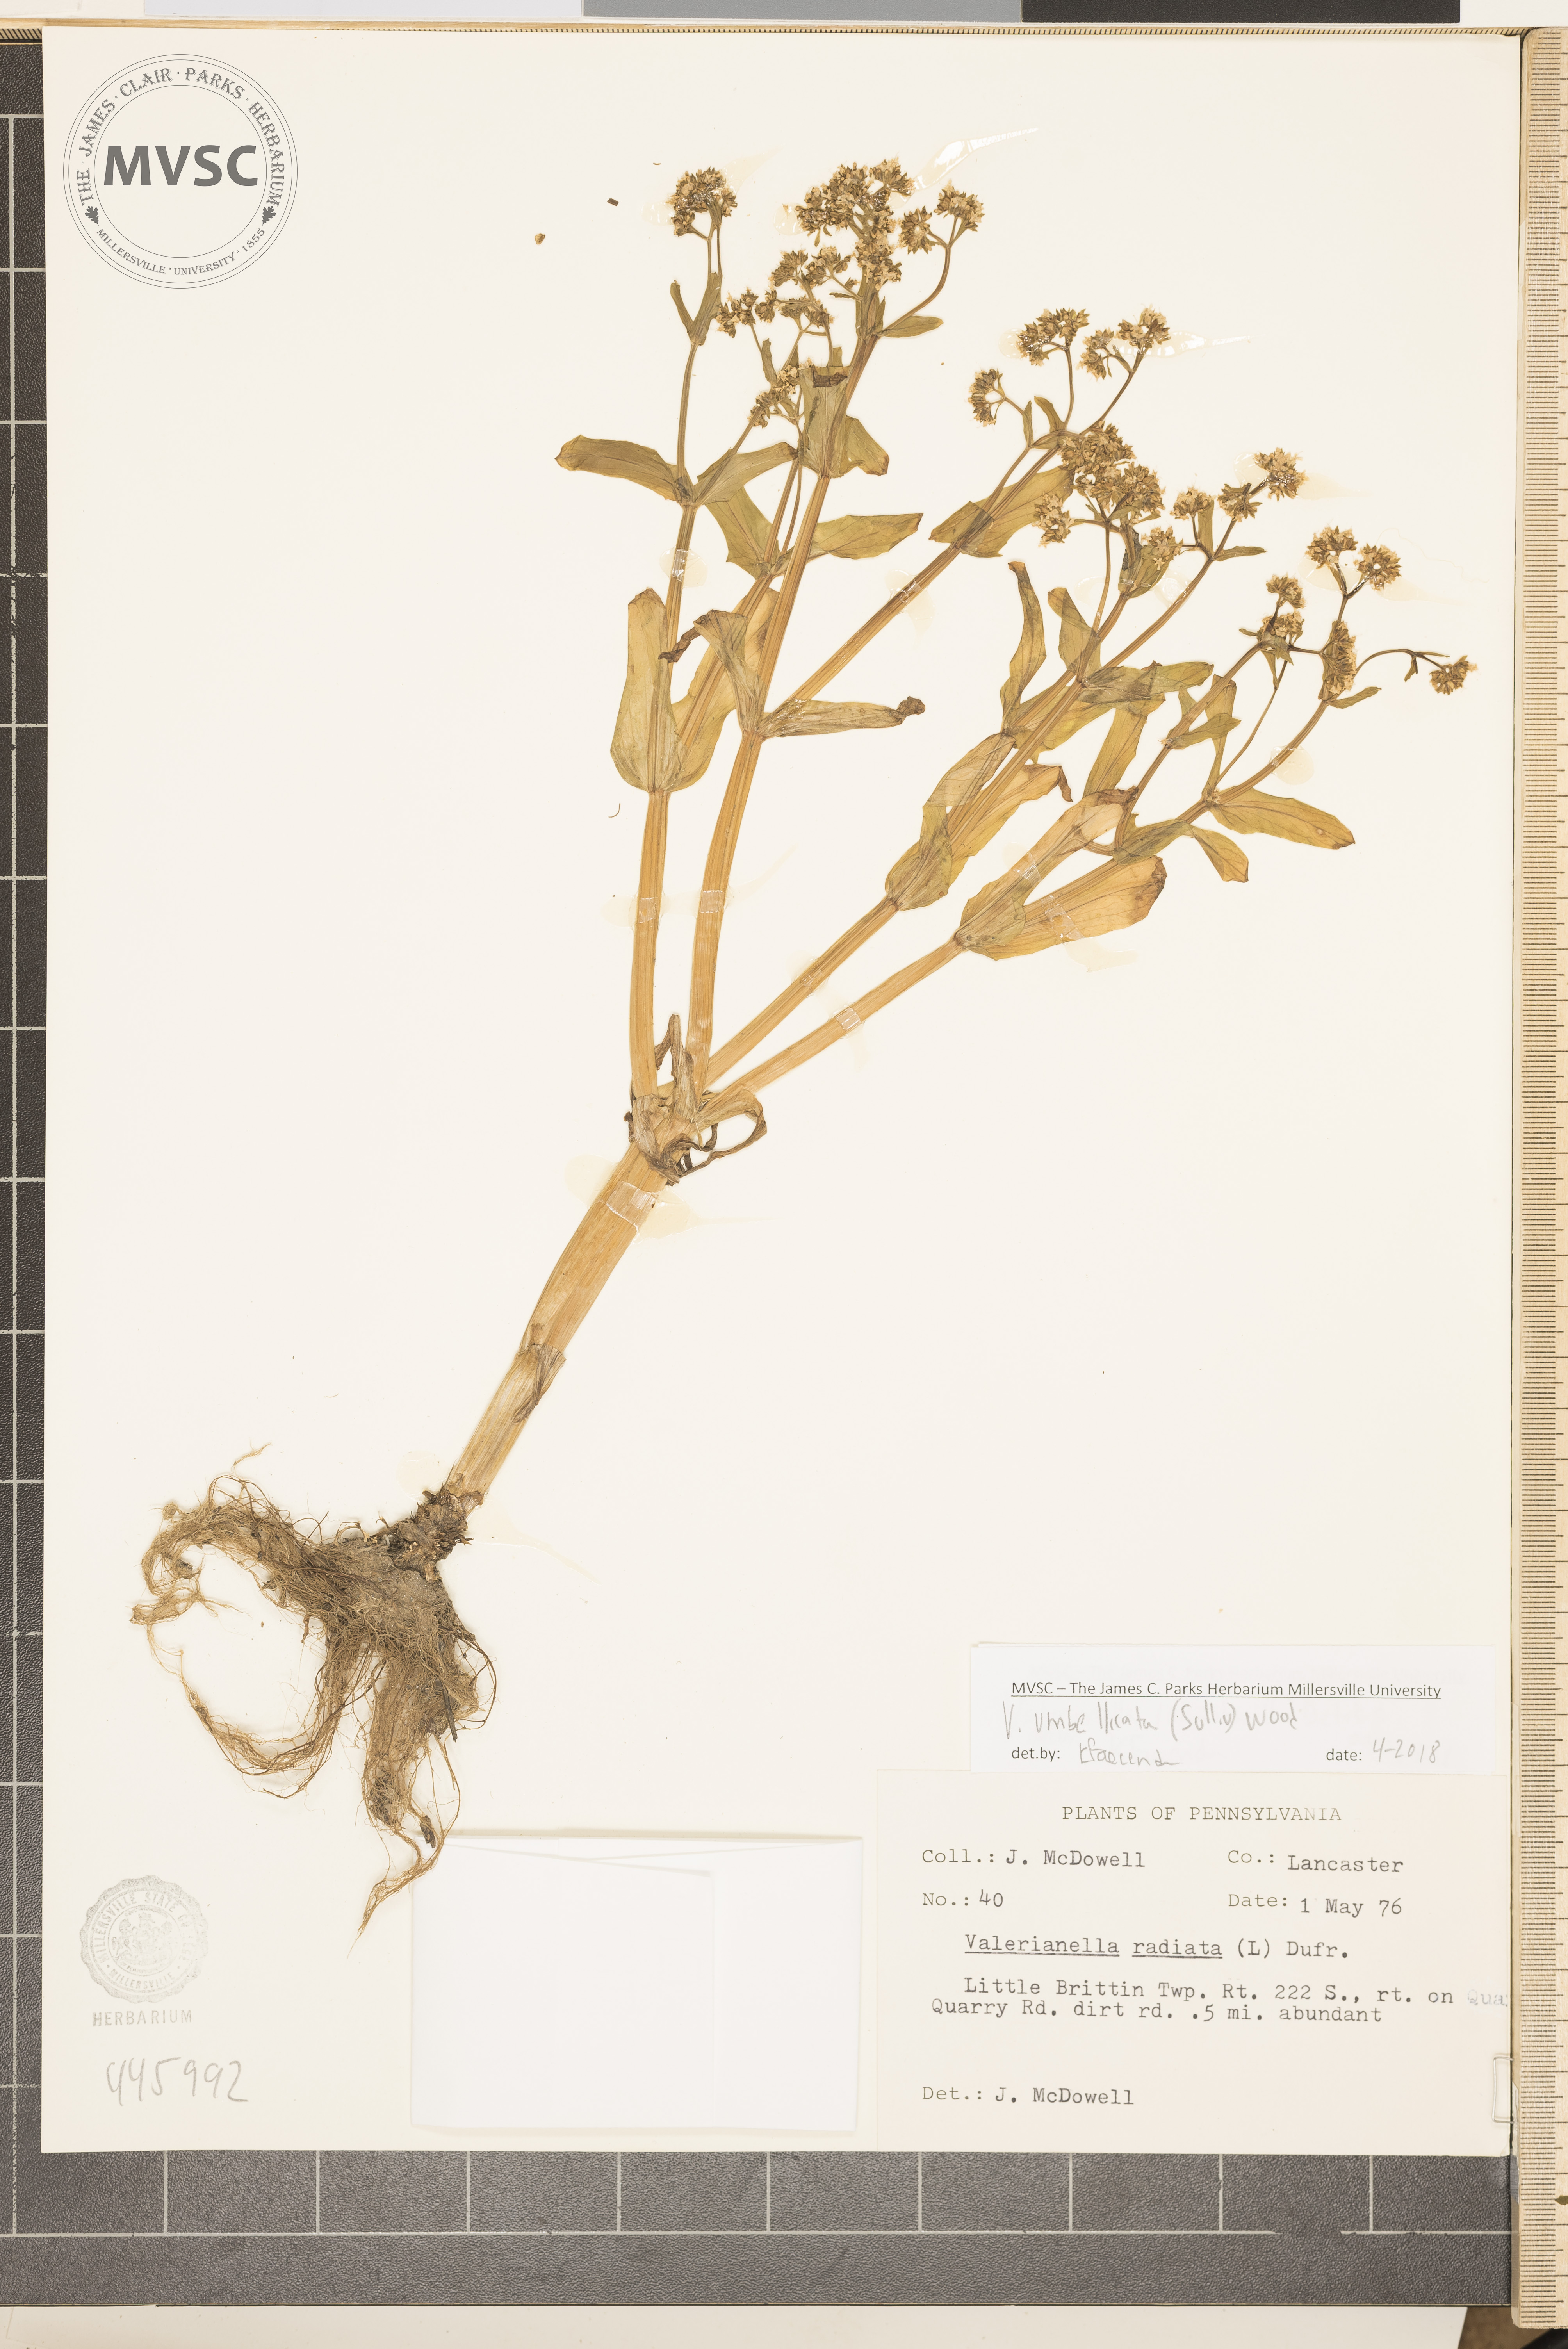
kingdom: Plantae
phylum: Tracheophyta
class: Magnoliopsida
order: Dipsacales
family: Caprifoliaceae
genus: Valerianella
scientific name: Valerianella umbilicata
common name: Wood's cornsalad
